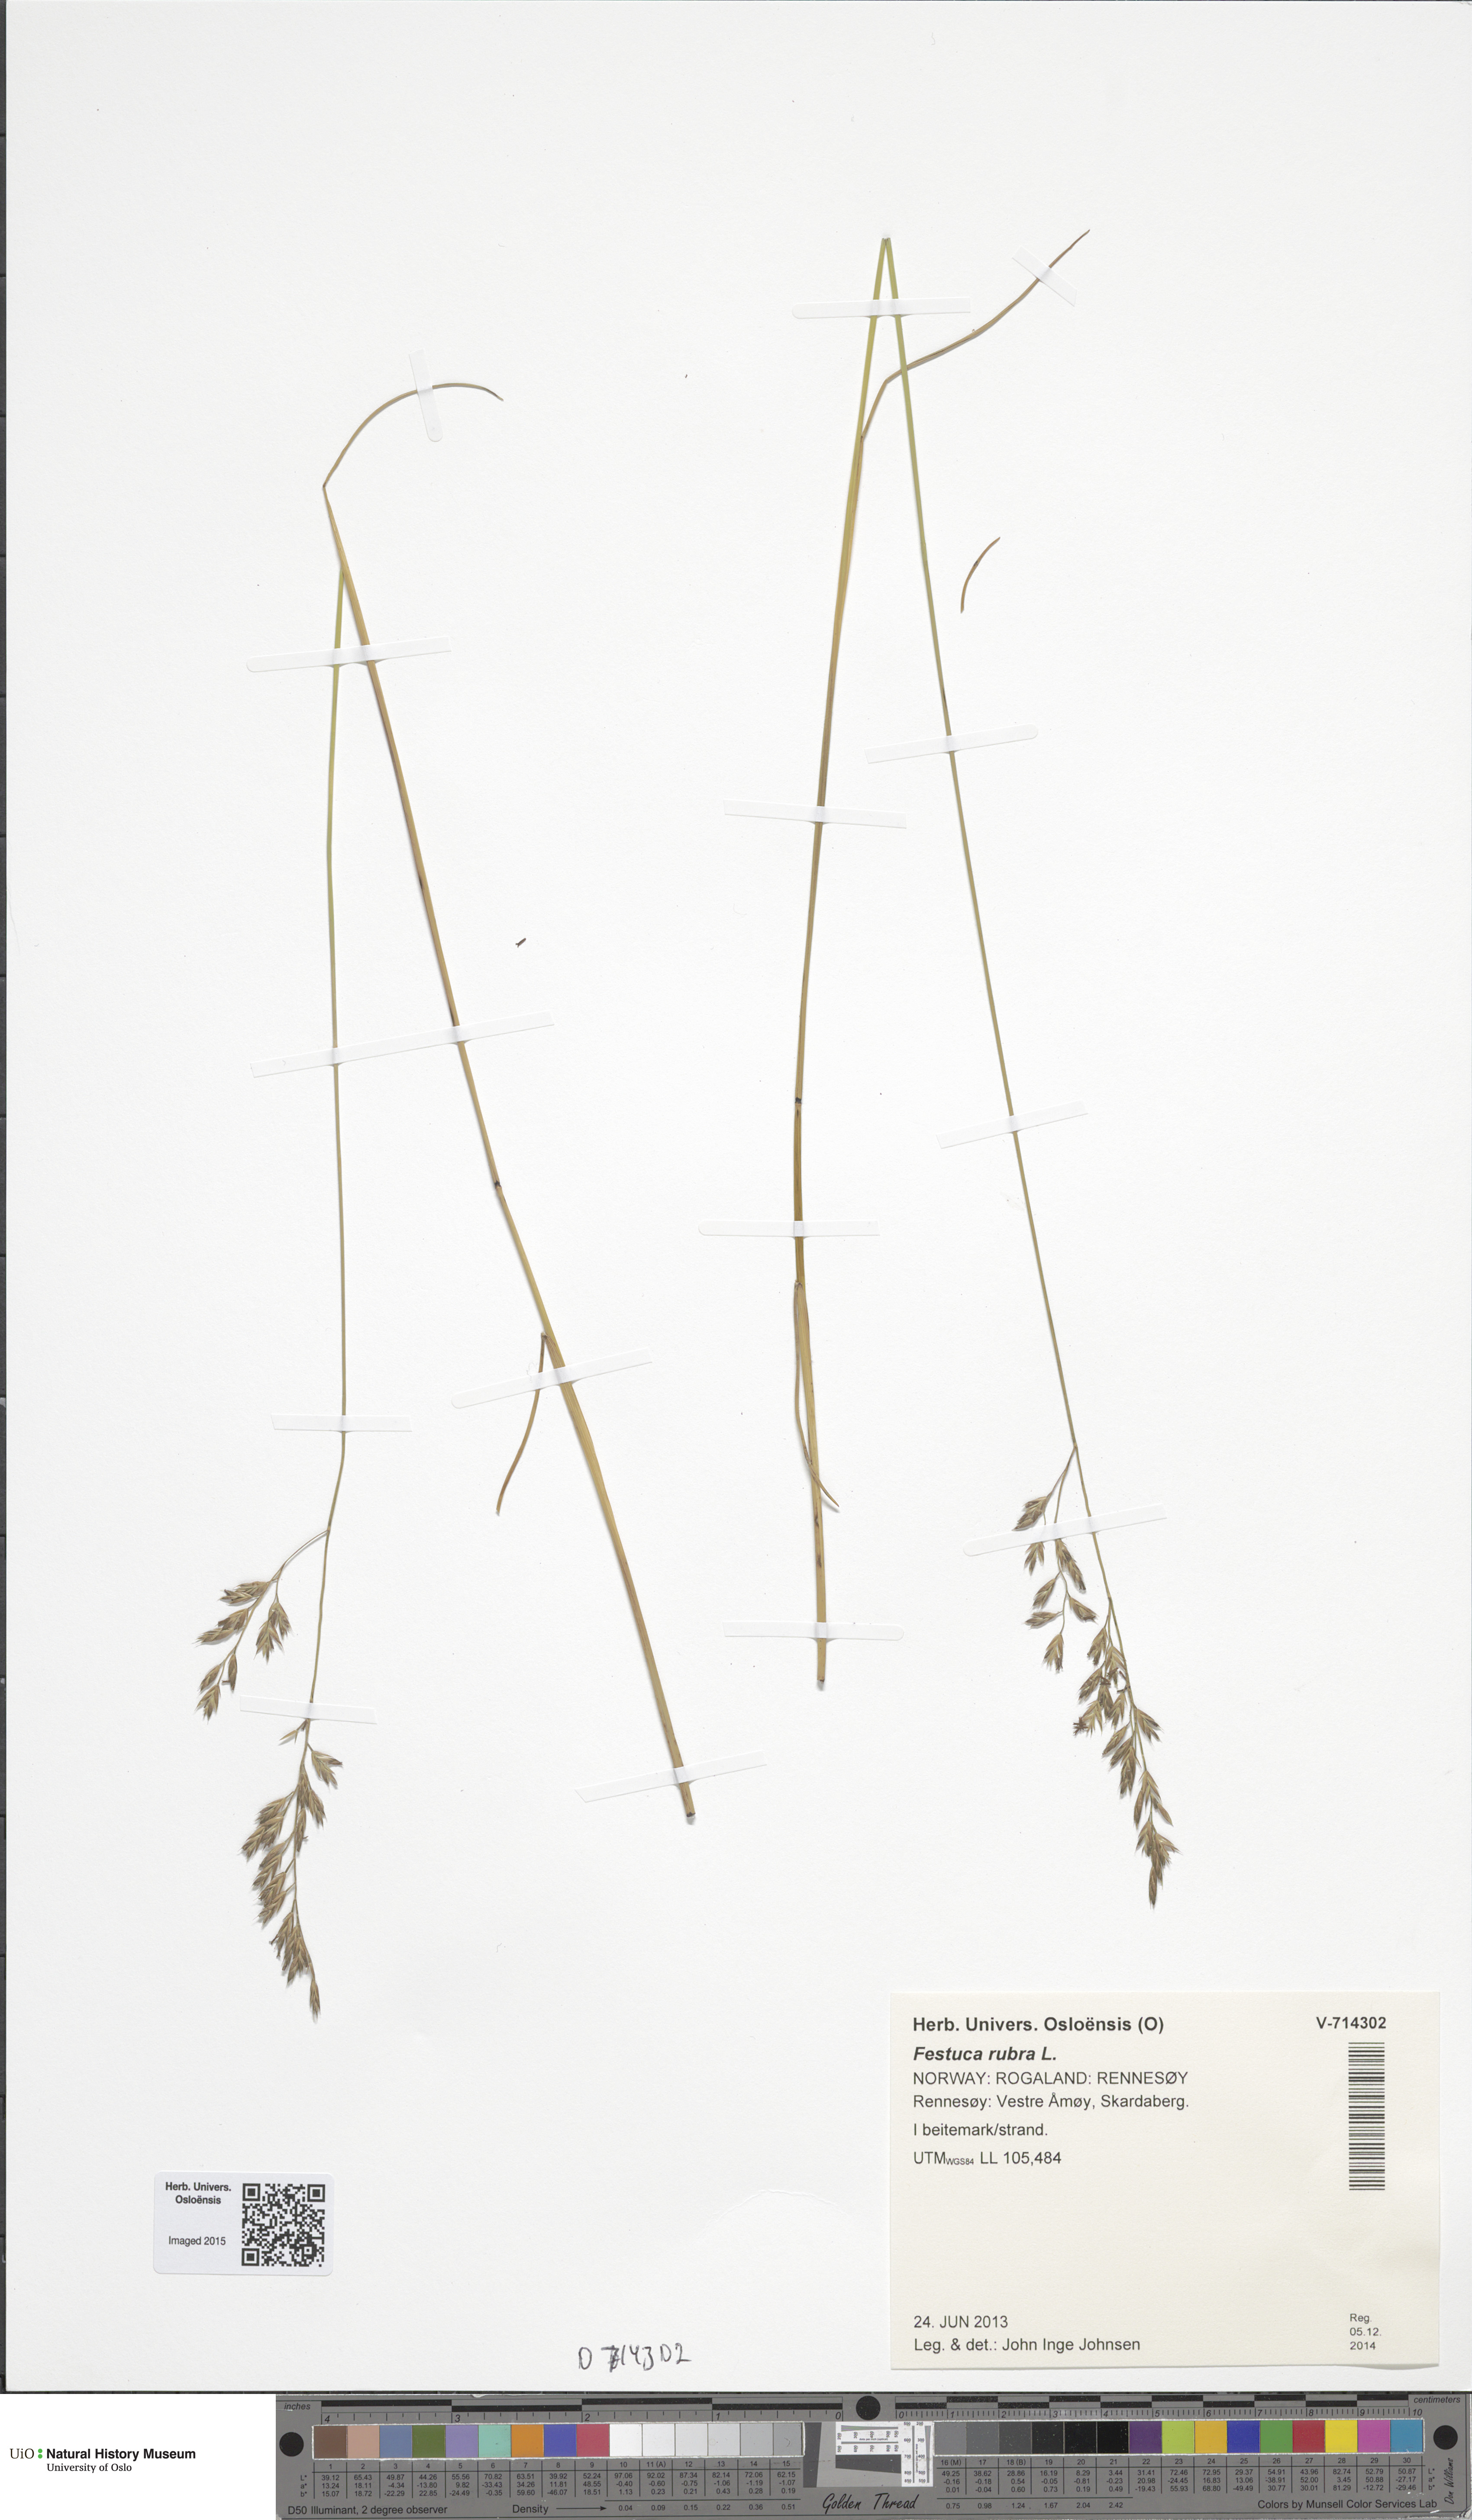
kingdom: Plantae
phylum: Tracheophyta
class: Liliopsida
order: Poales
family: Poaceae
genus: Festuca
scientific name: Festuca rubra
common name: Red fescue
